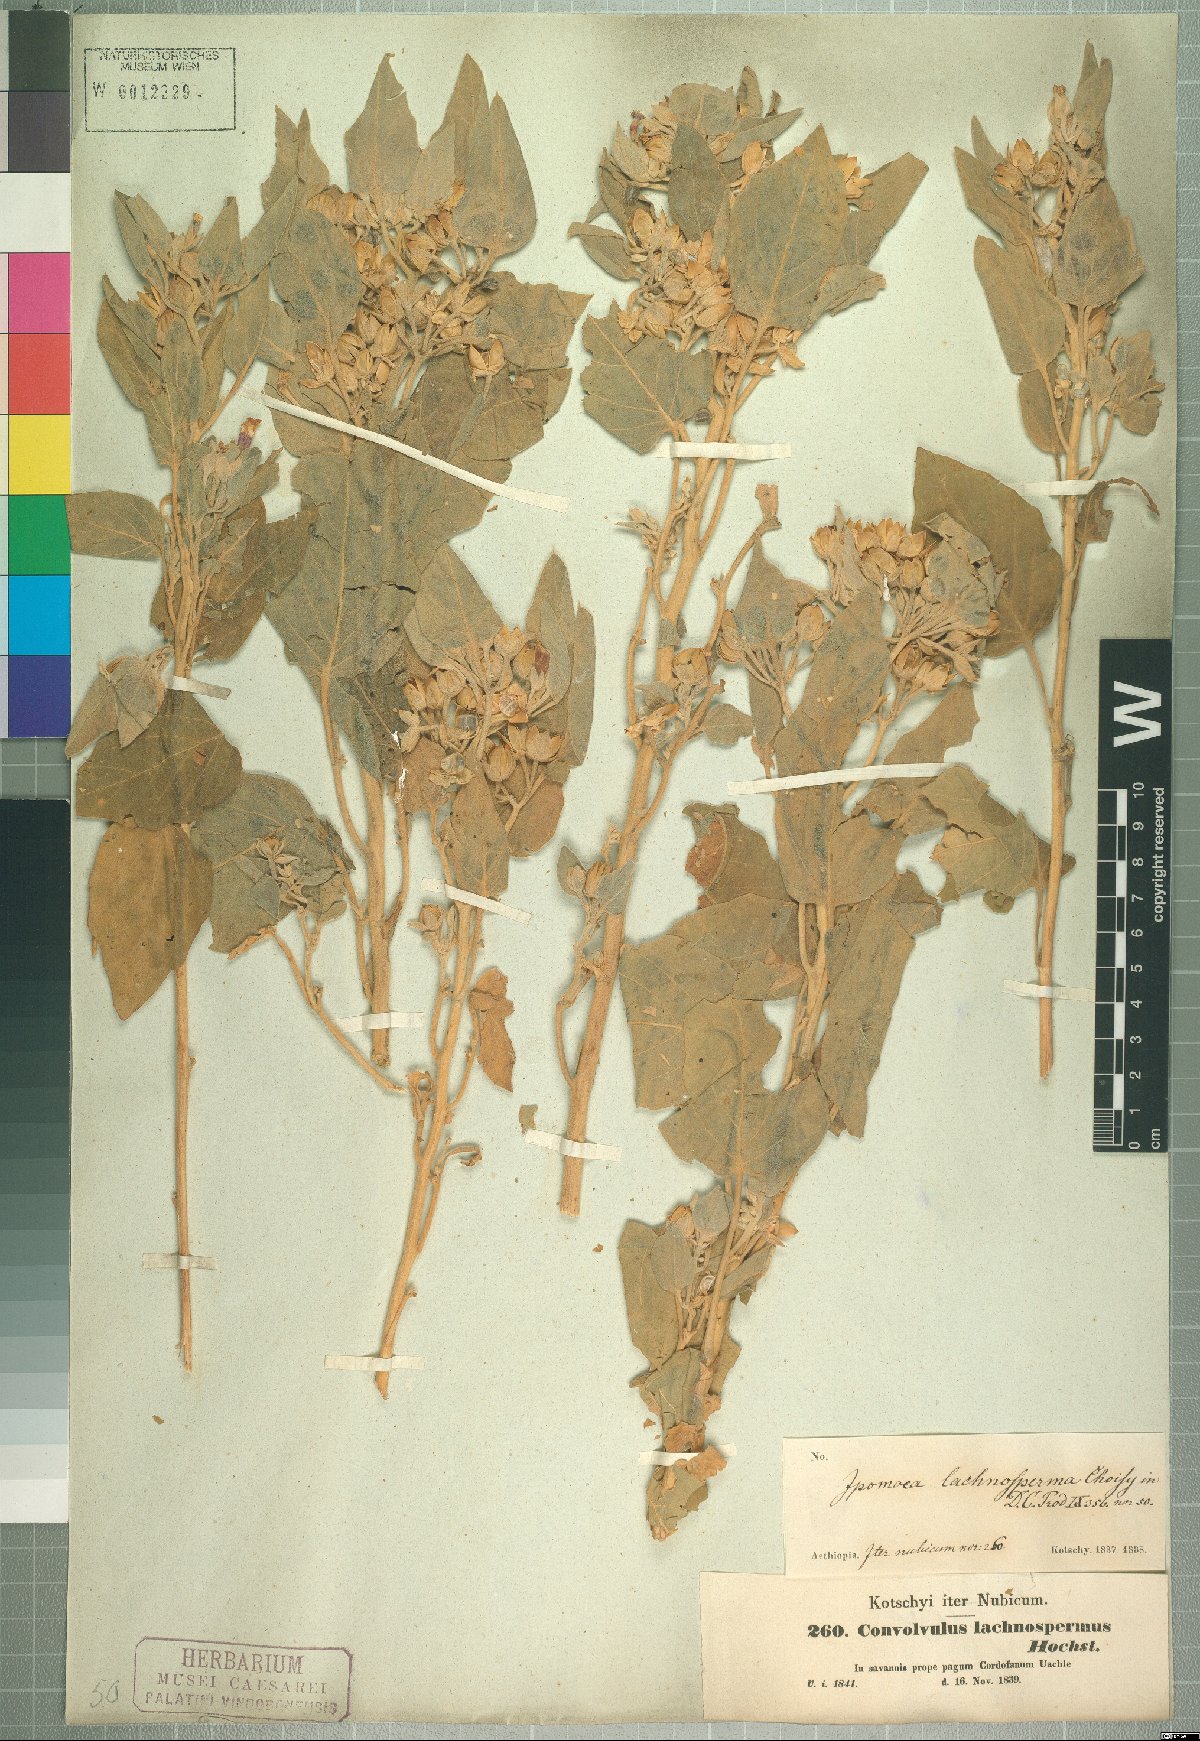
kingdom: Plantae
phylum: Tracheophyta
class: Magnoliopsida
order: Solanales
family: Convolvulaceae
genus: Astripomoea
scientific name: Astripomoea lachnosperma
